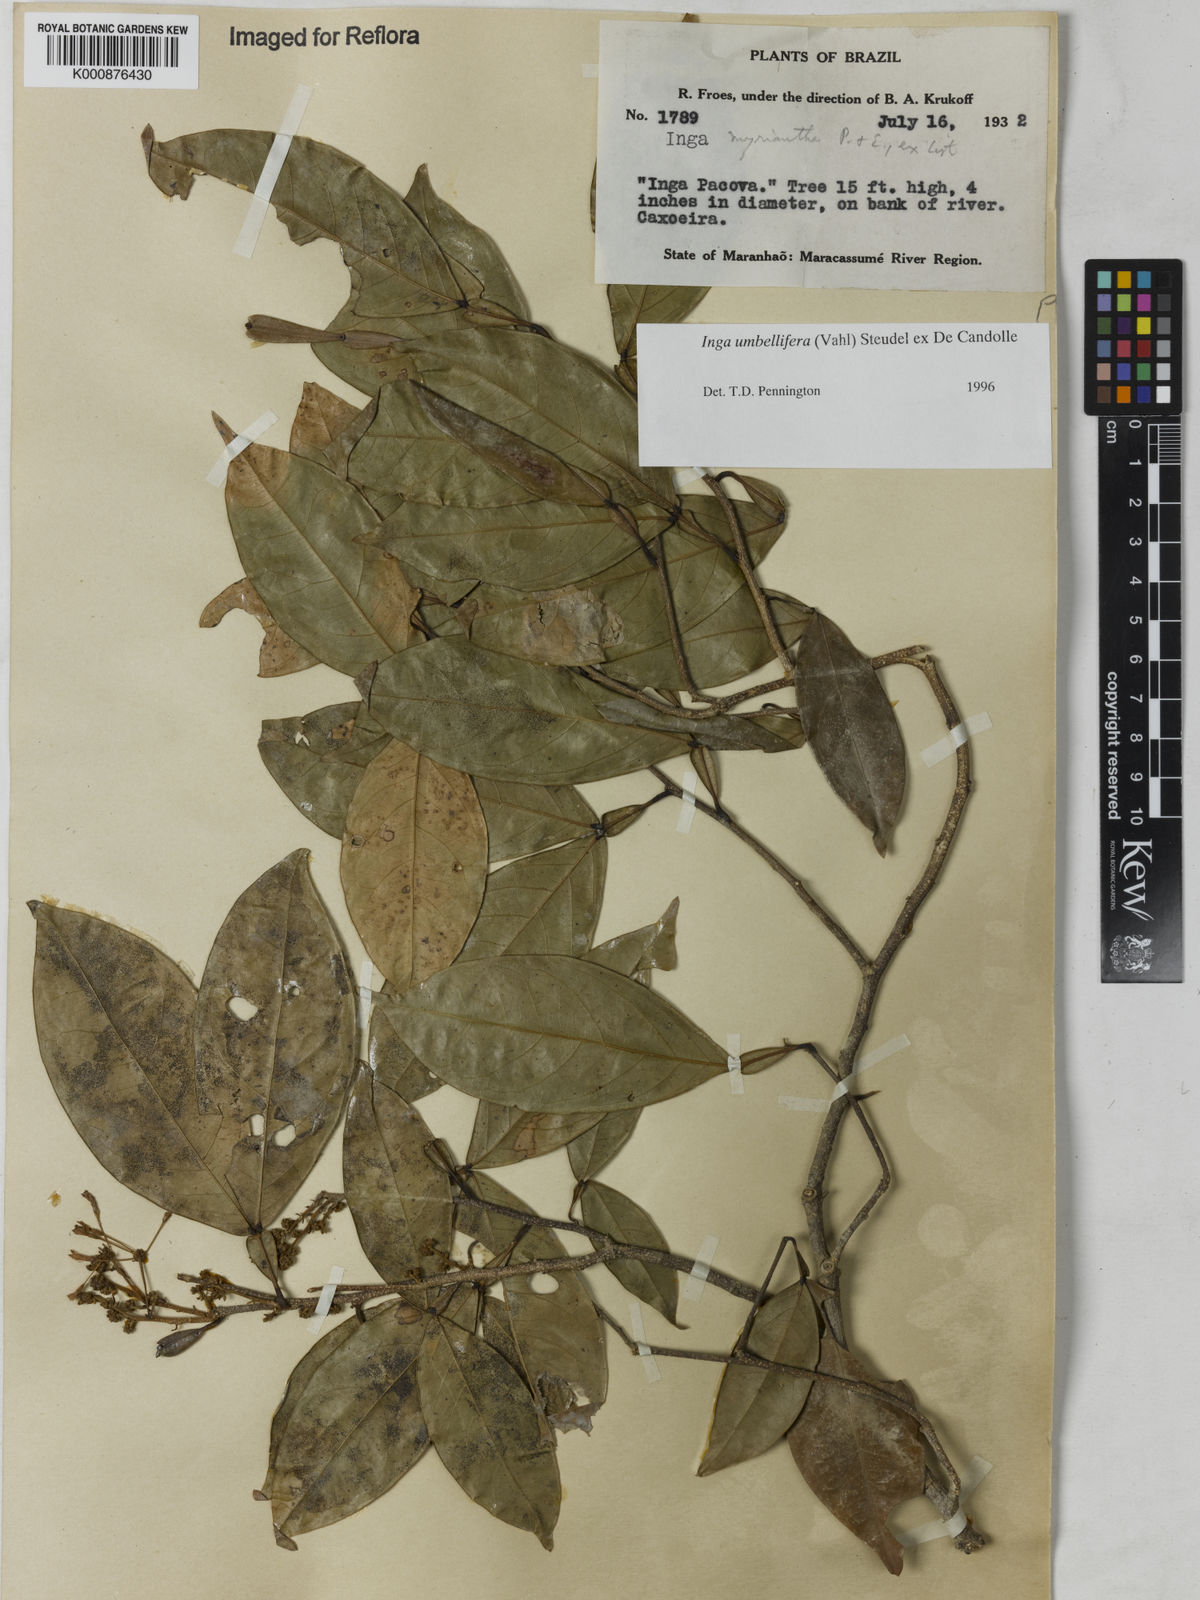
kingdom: Plantae
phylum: Tracheophyta
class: Magnoliopsida
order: Fabales
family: Fabaceae
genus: Inga
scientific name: Inga umbellifera
